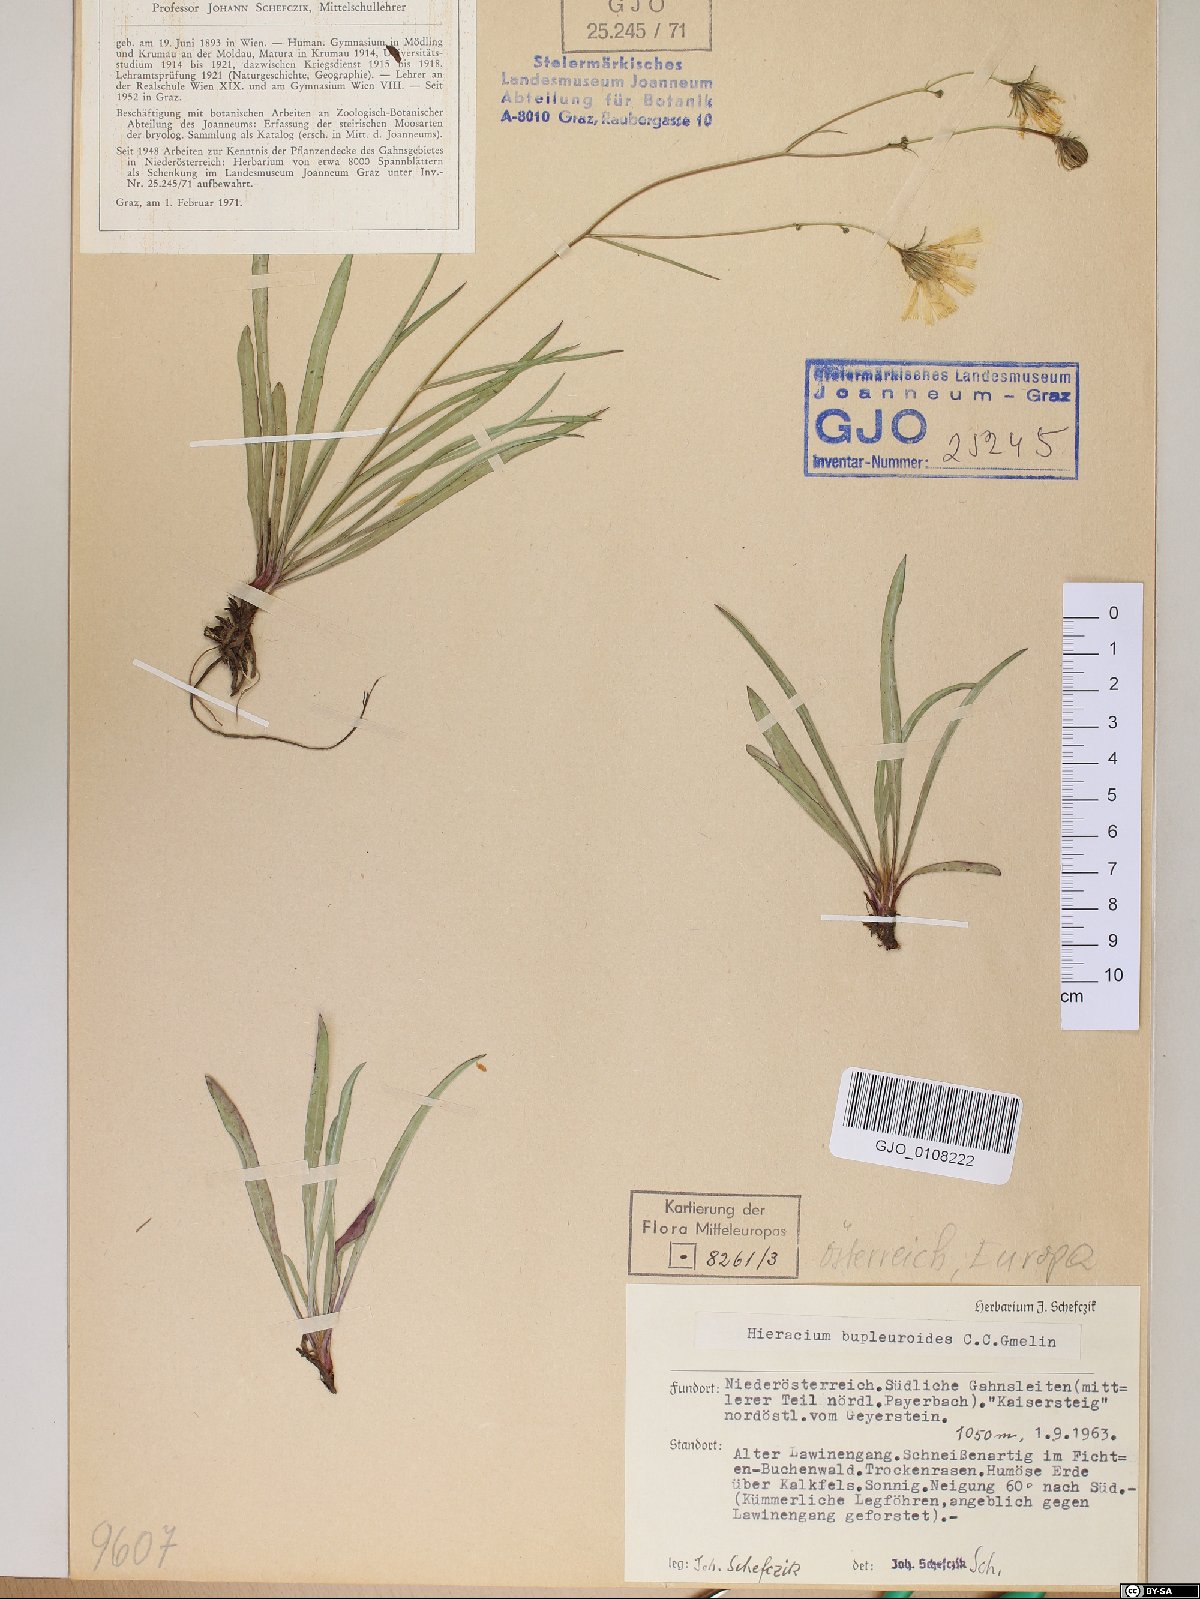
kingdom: Plantae
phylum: Tracheophyta
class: Magnoliopsida
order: Asterales
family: Asteraceae
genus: Hieracium
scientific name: Hieracium bupleuroides
